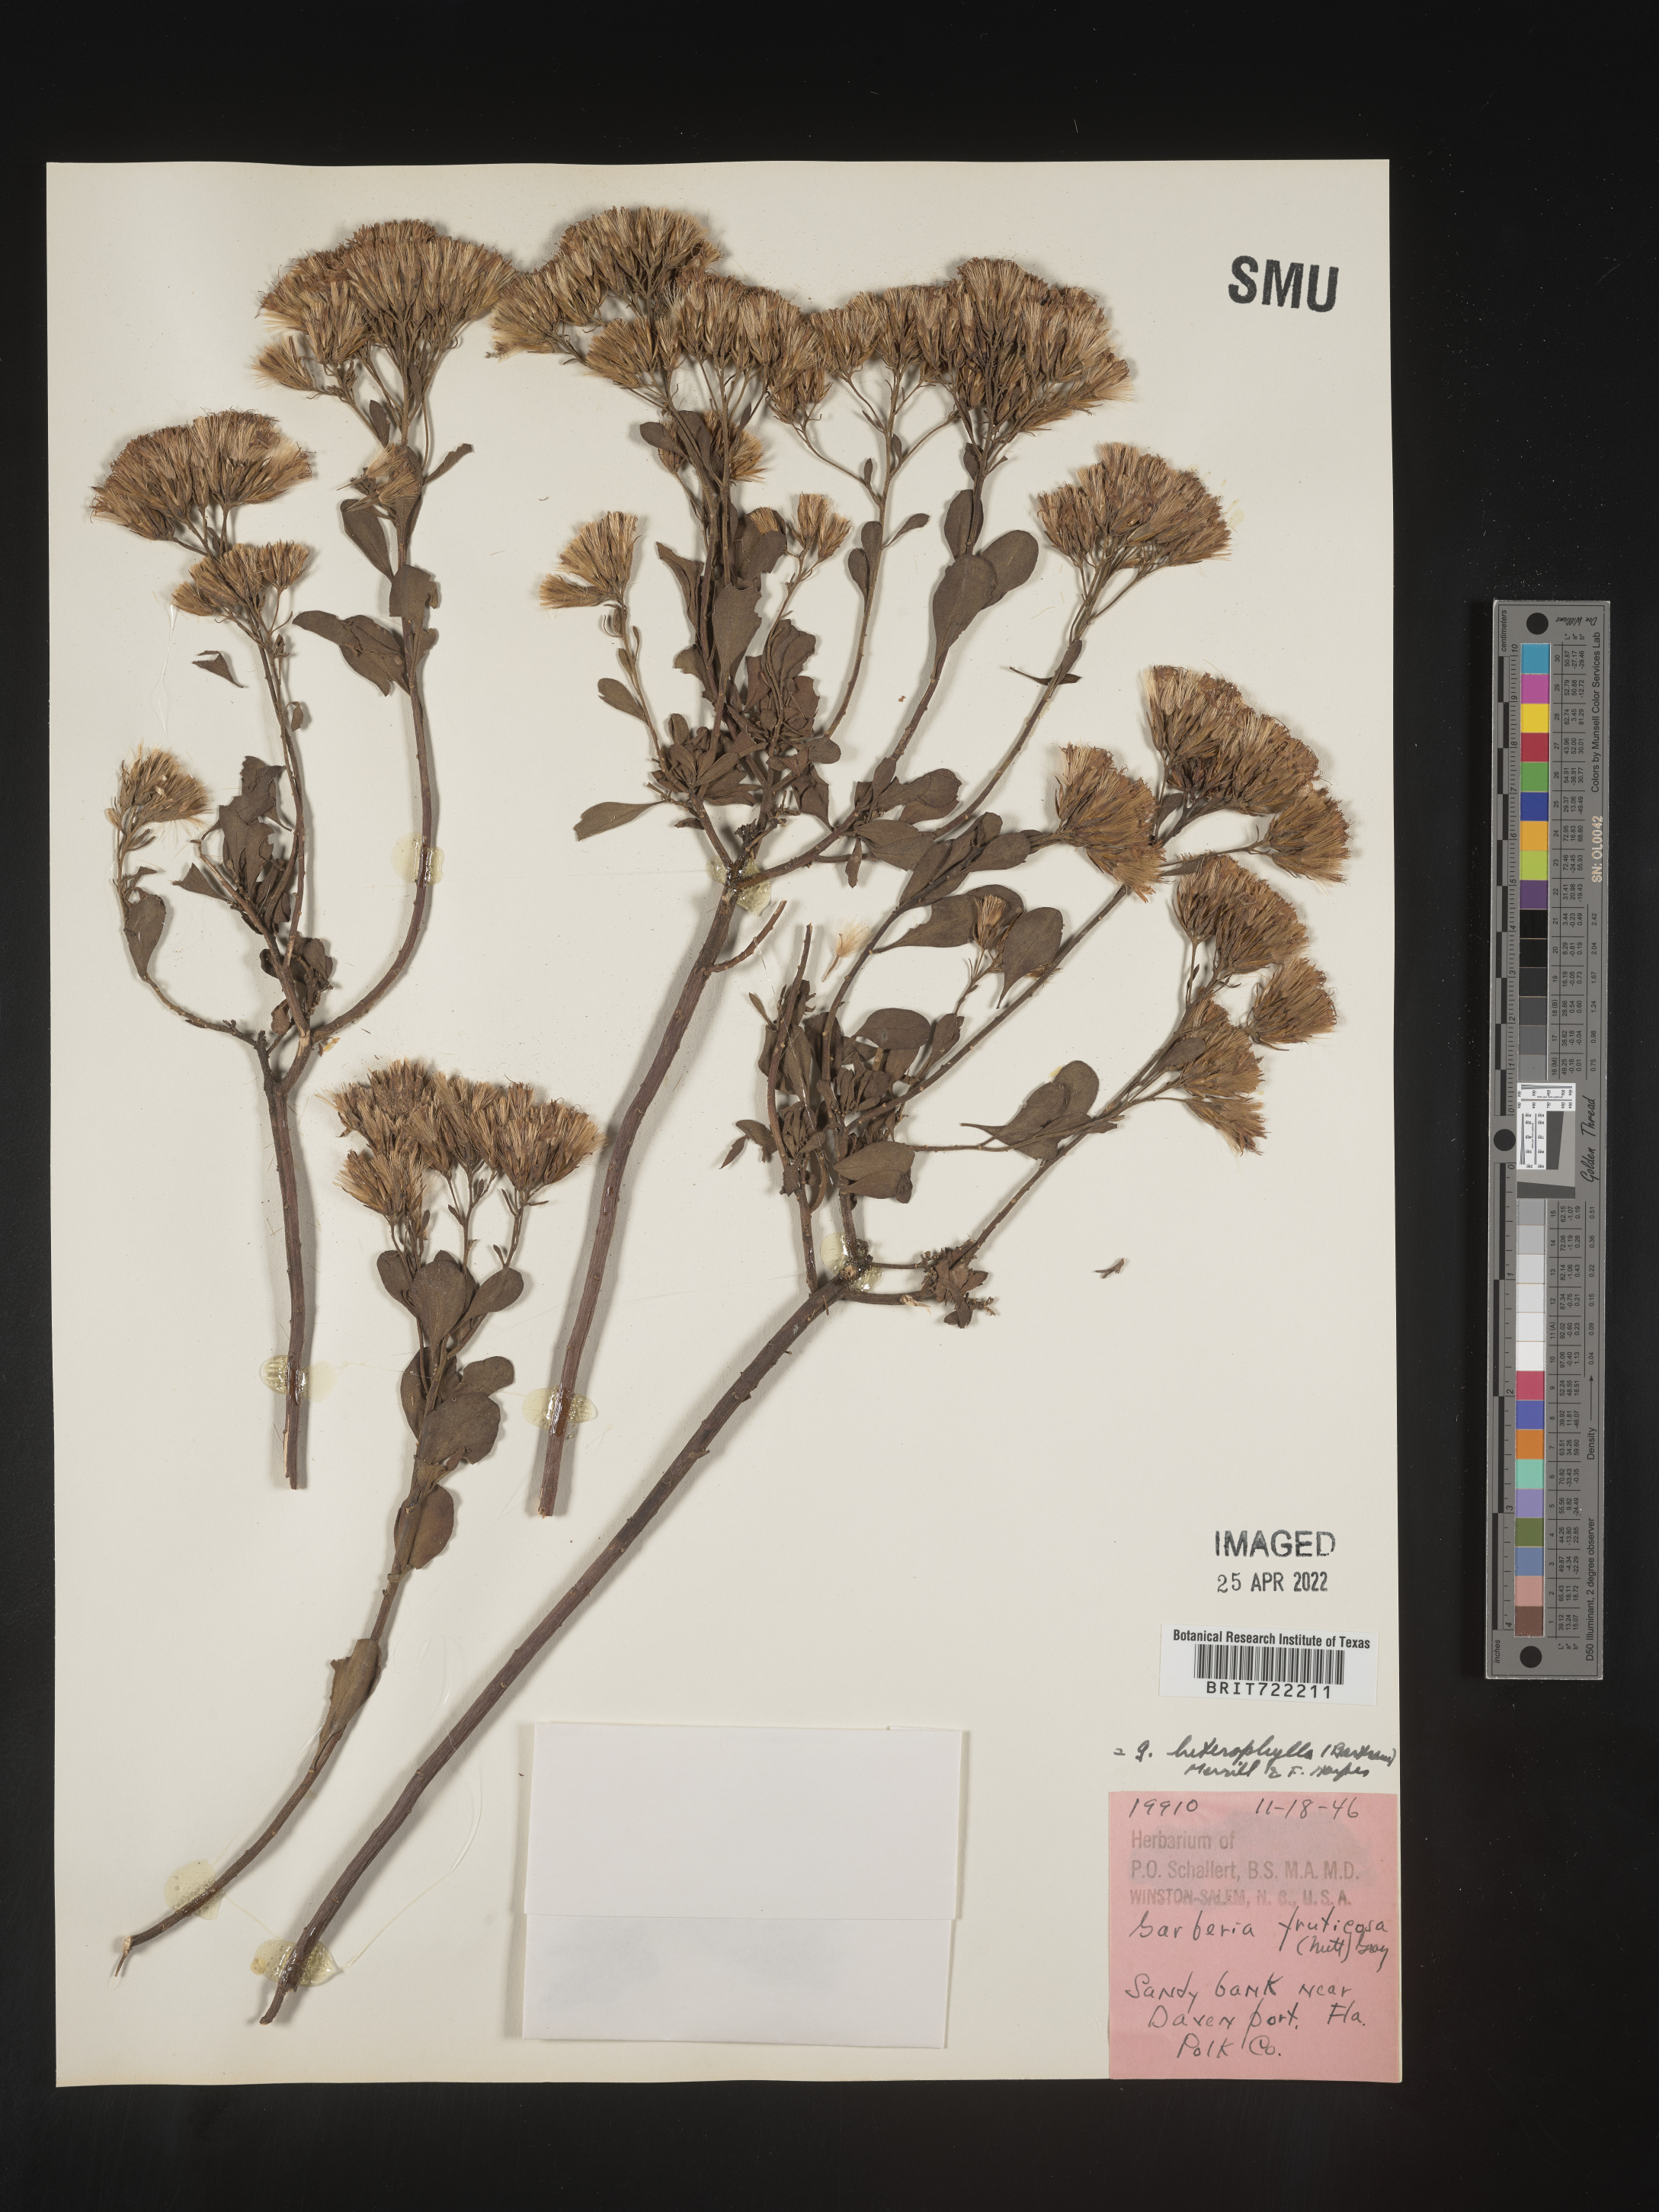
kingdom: Plantae
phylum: Tracheophyta
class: Magnoliopsida
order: Asterales
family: Asteraceae
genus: Garberia
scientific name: Garberia
